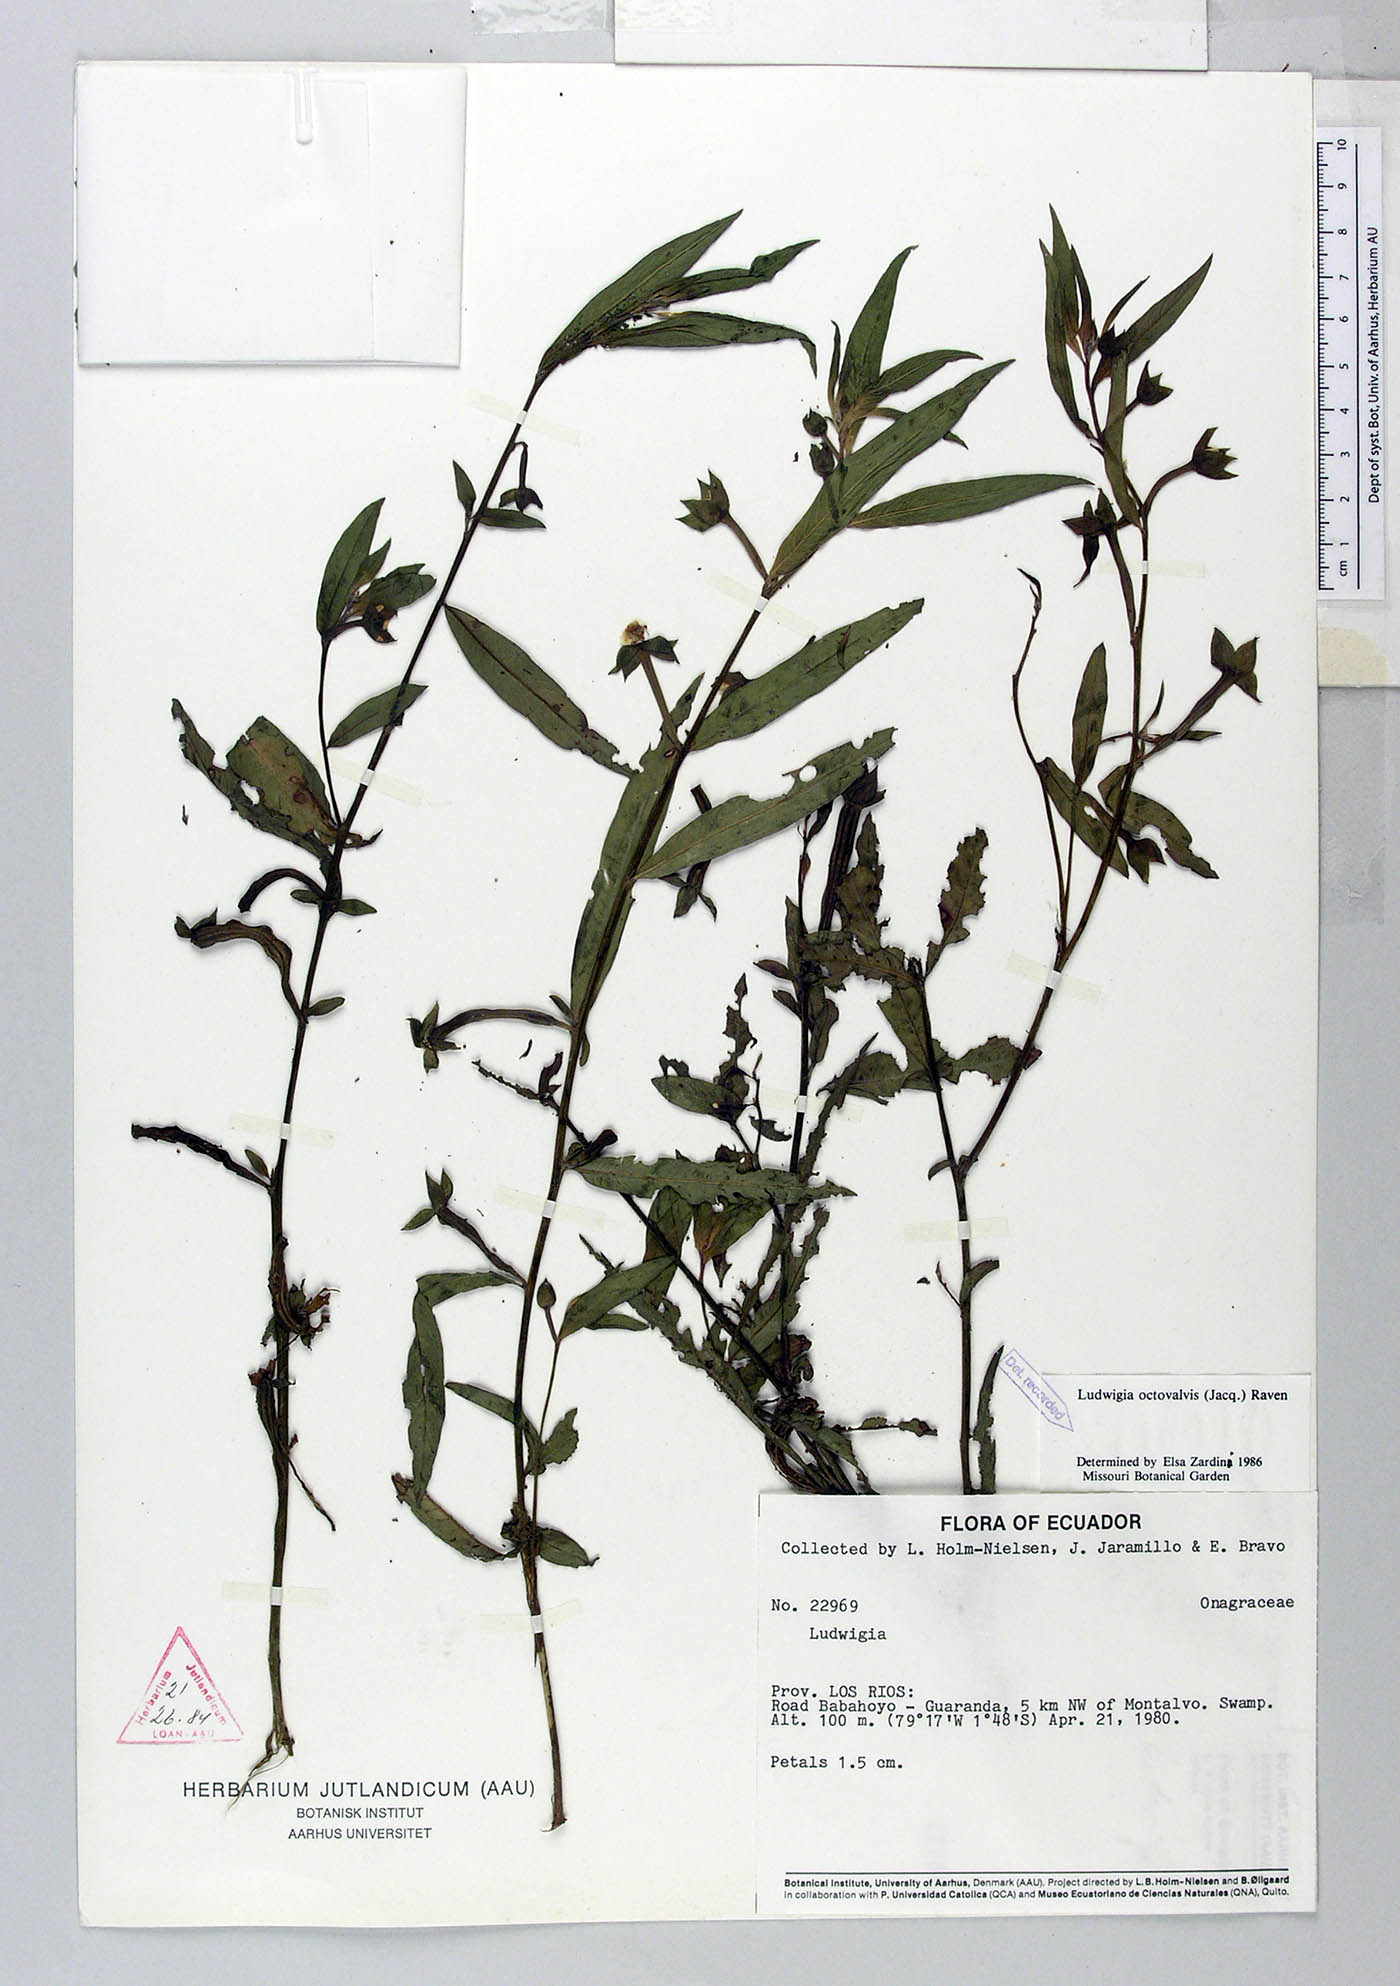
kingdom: Plantae
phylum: Tracheophyta
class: Magnoliopsida
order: Myrtales
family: Onagraceae
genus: Ludwigia
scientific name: Ludwigia octovalvis
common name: Water-primrose
